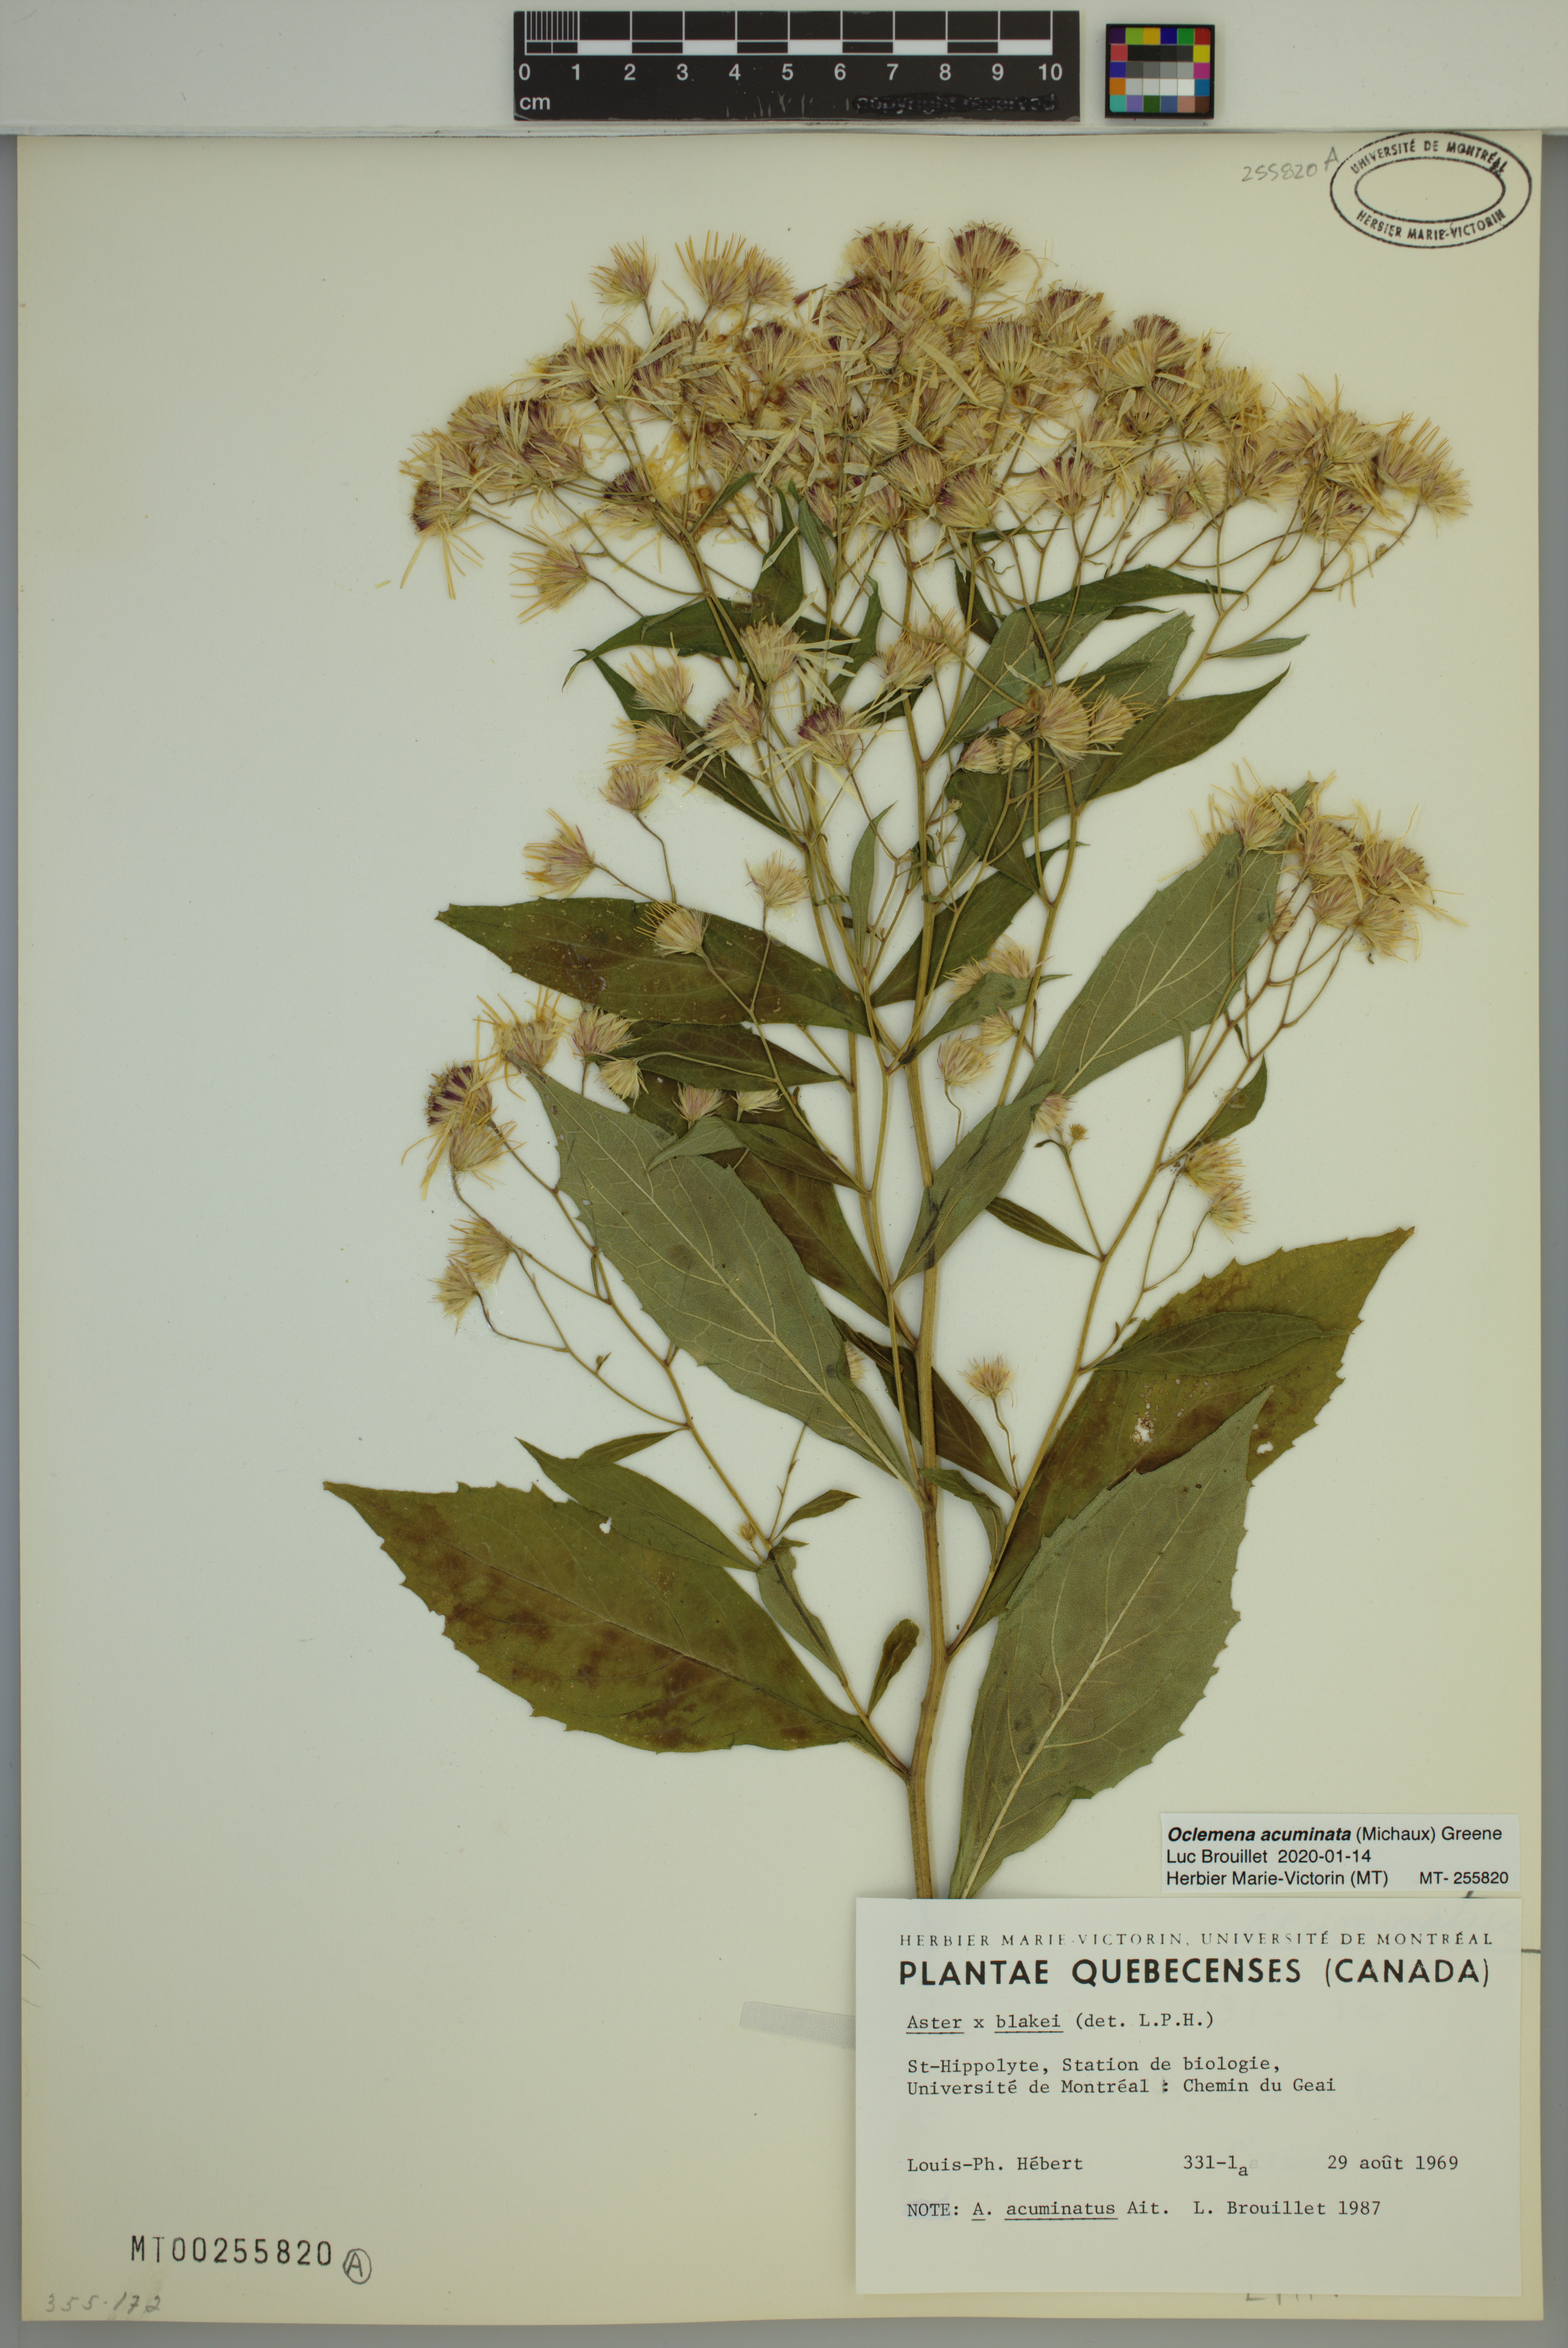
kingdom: Plantae
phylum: Tracheophyta
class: Magnoliopsida
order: Asterales
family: Asteraceae
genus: Oclemena
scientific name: Oclemena acuminata
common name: Mountain aster
